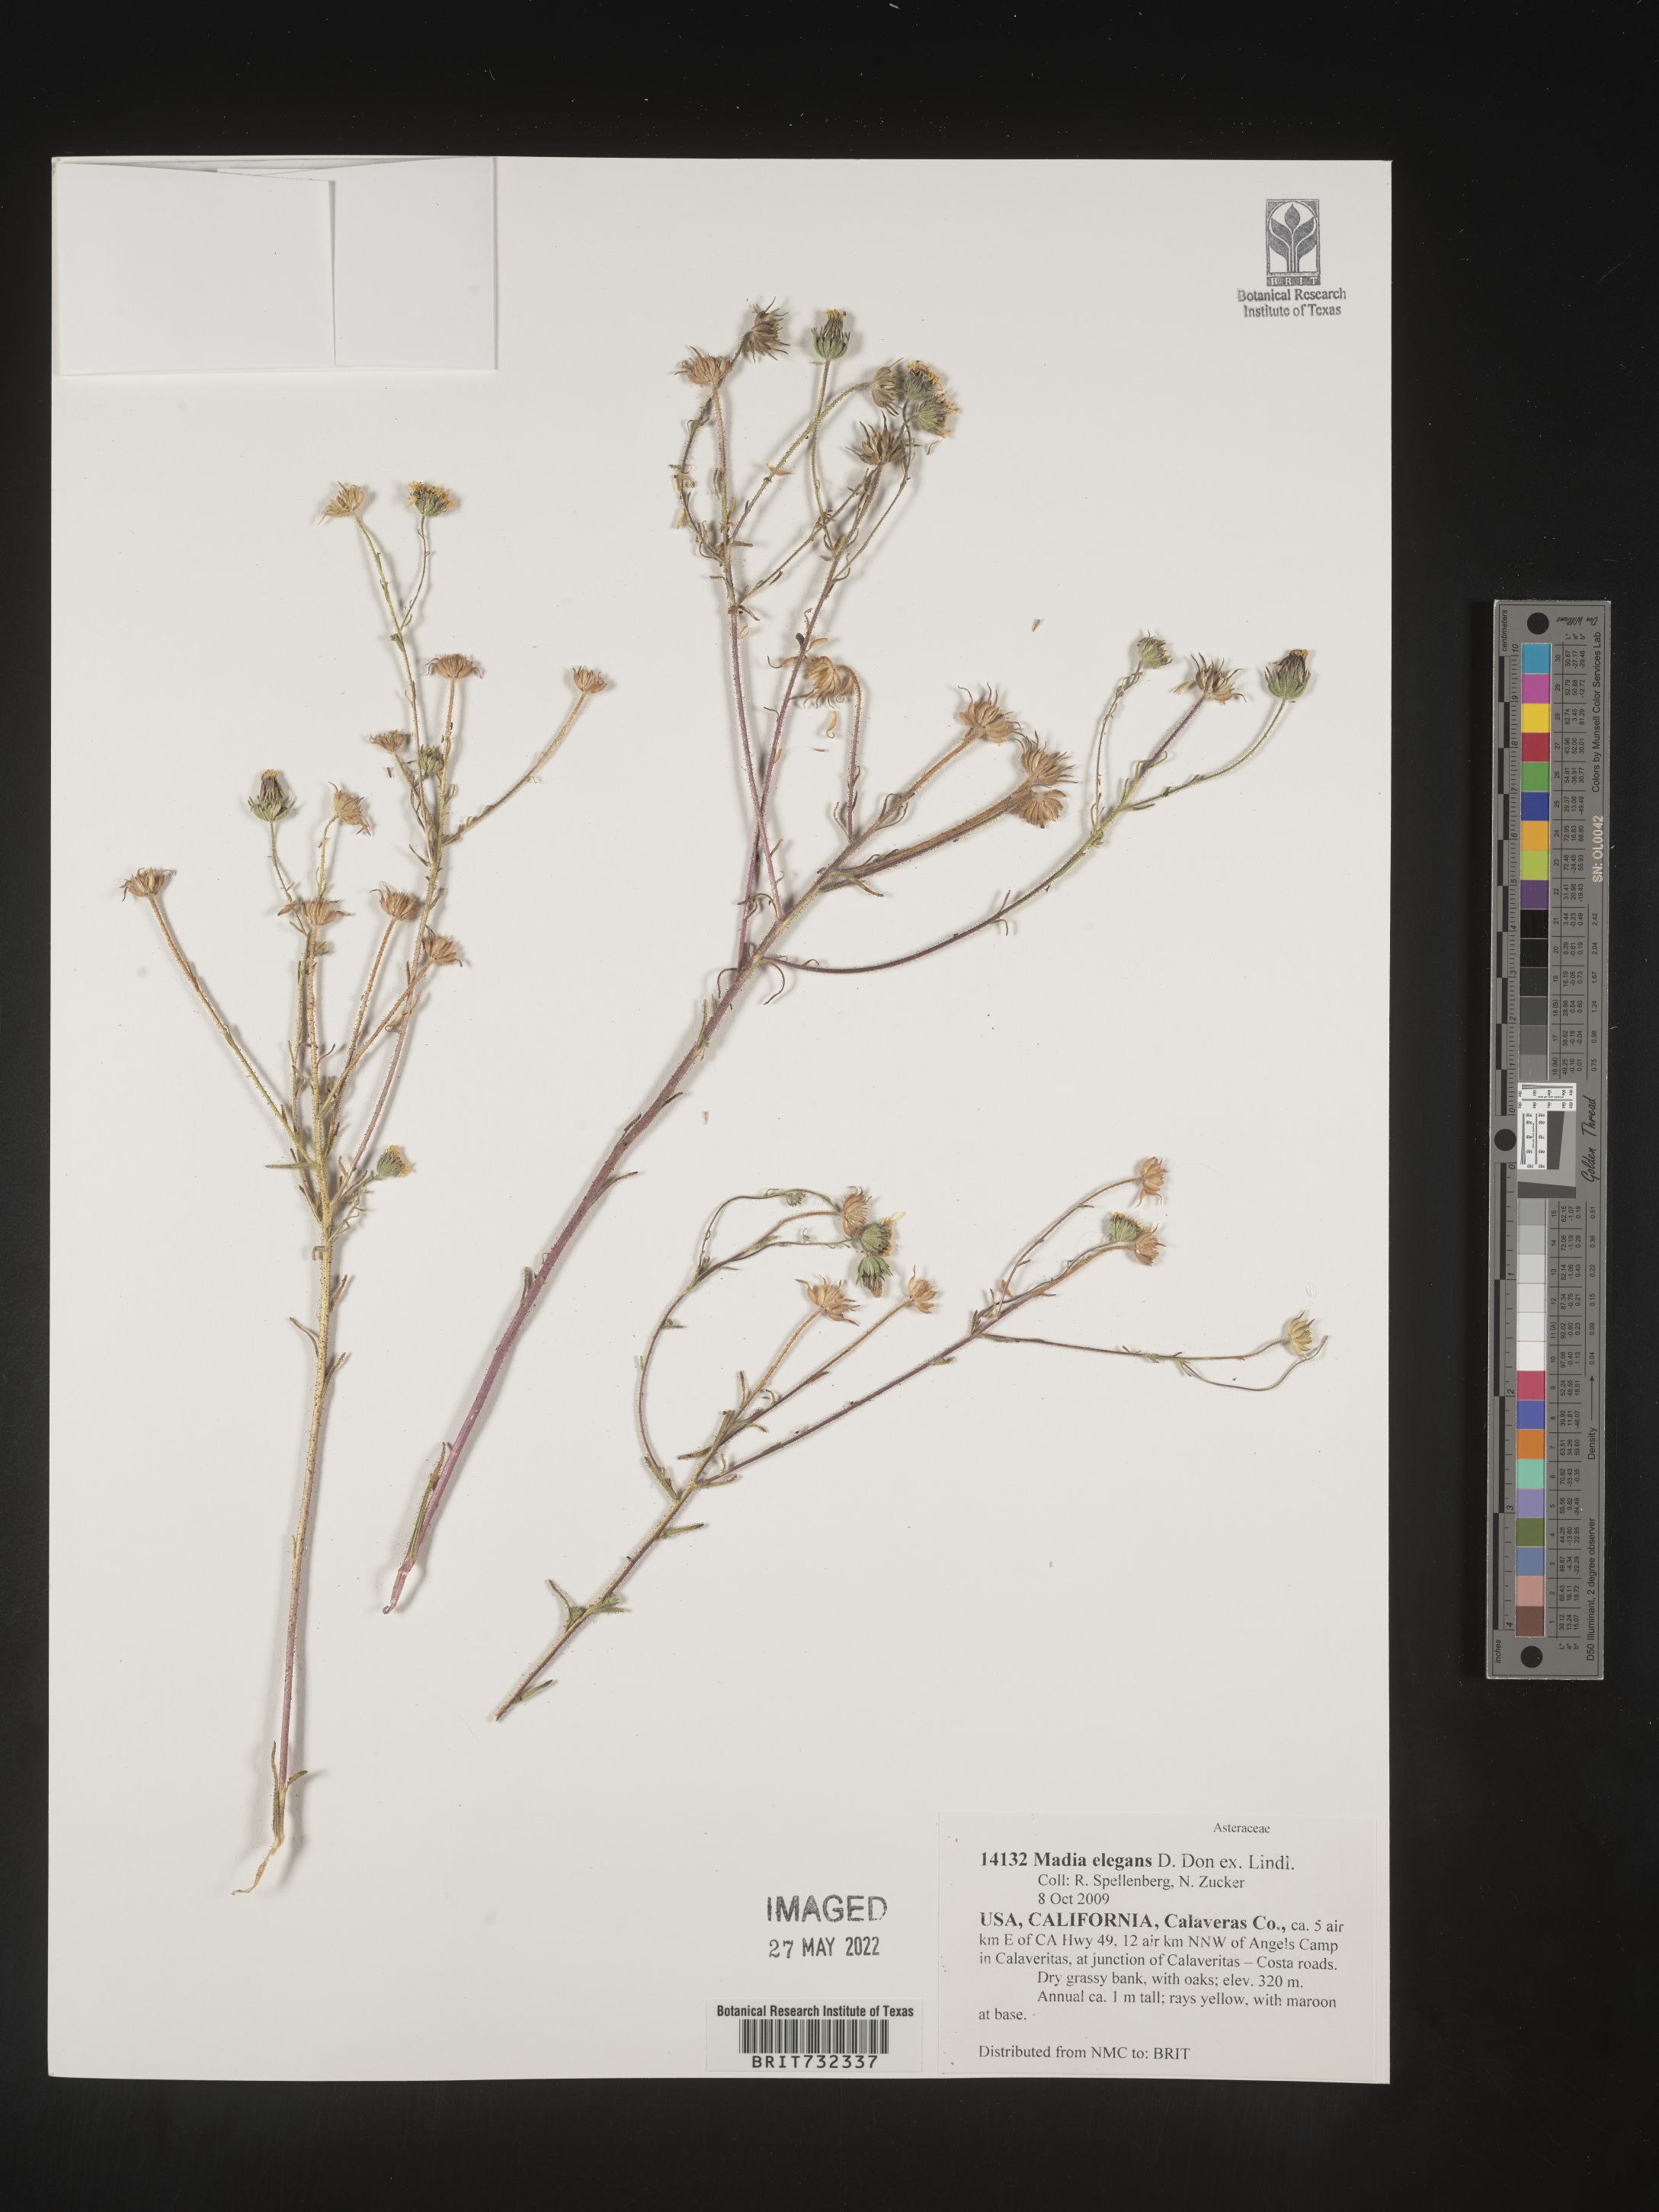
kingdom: Plantae
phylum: Tracheophyta
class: Magnoliopsida
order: Asterales
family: Asteraceae
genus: Madia
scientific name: Madia
